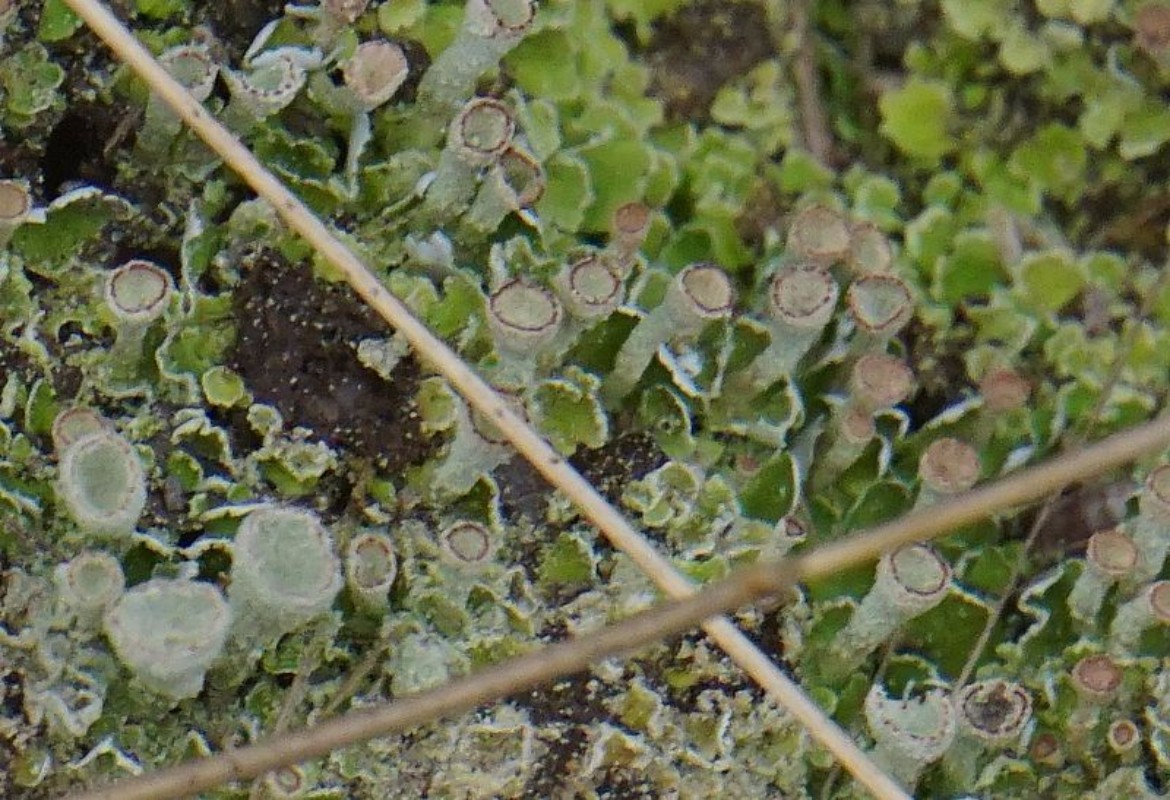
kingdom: Fungi
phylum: Ascomycota
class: Lecanoromycetes
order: Lecanorales
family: Cladoniaceae
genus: Cladonia
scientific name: Cladonia humilis
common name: lav bægerlav
